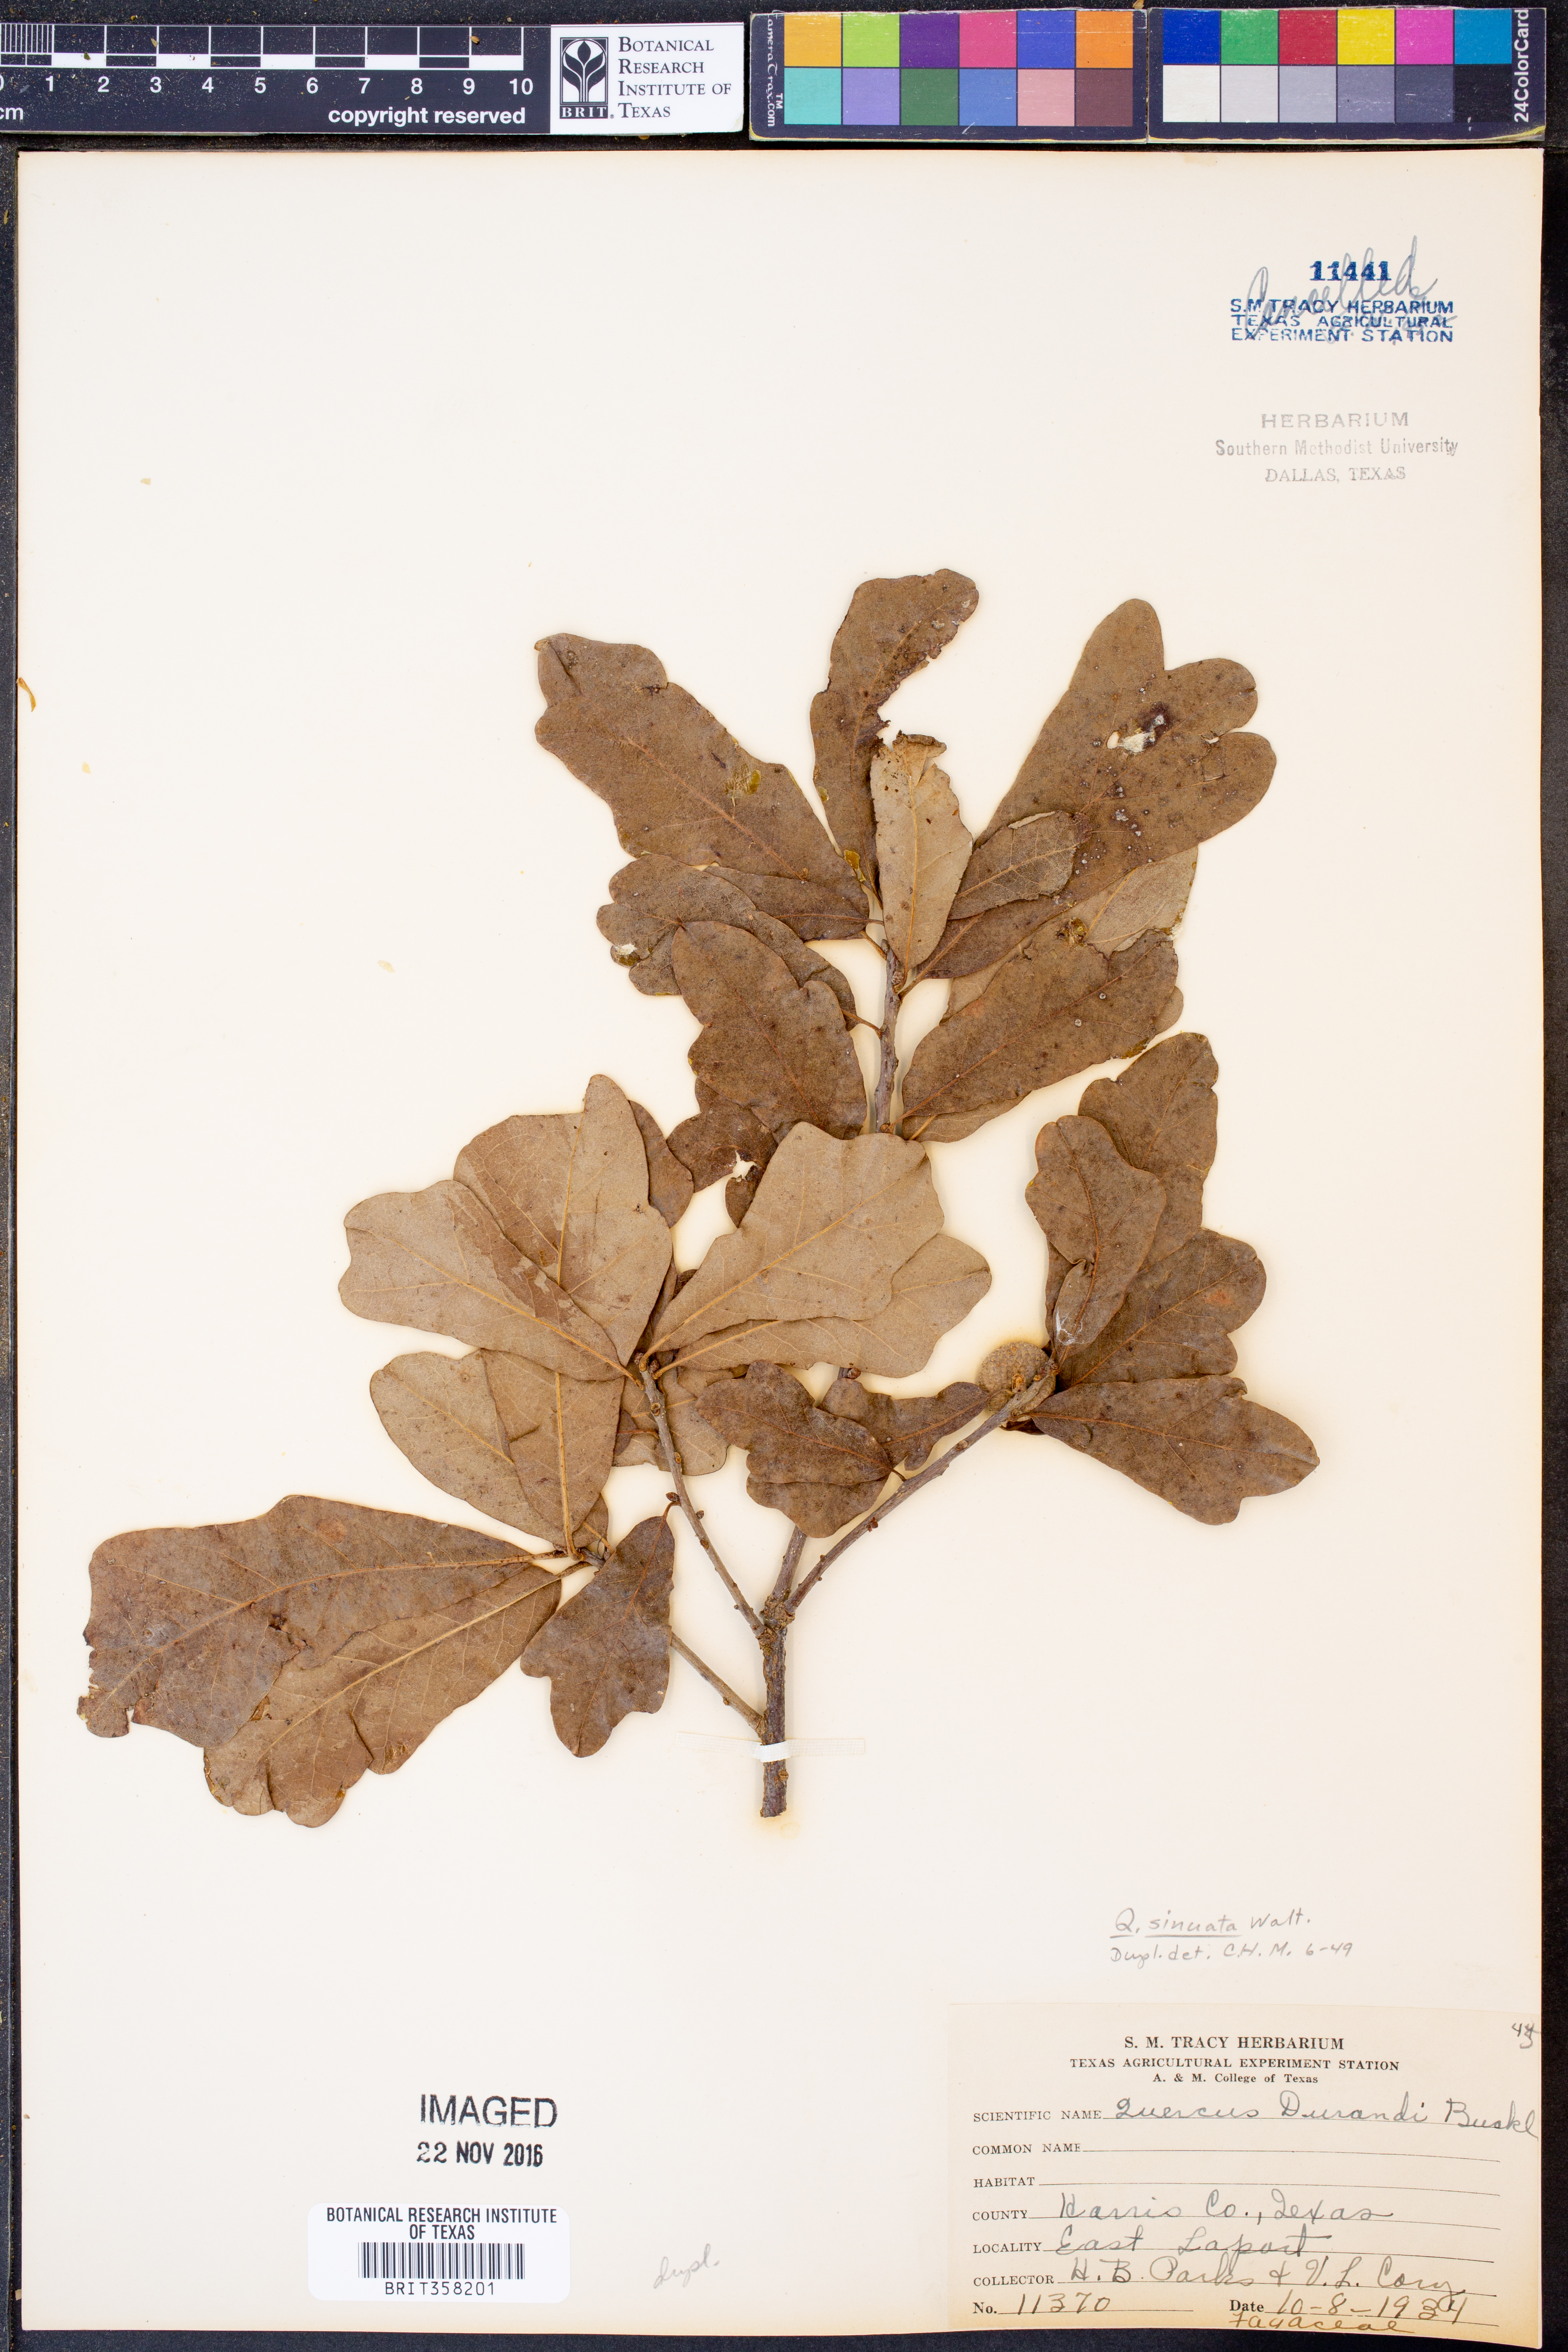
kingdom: Plantae
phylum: Tracheophyta
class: Magnoliopsida
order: Fagales
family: Fagaceae
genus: Quercus
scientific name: Quercus sinuata
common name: Durand oak
